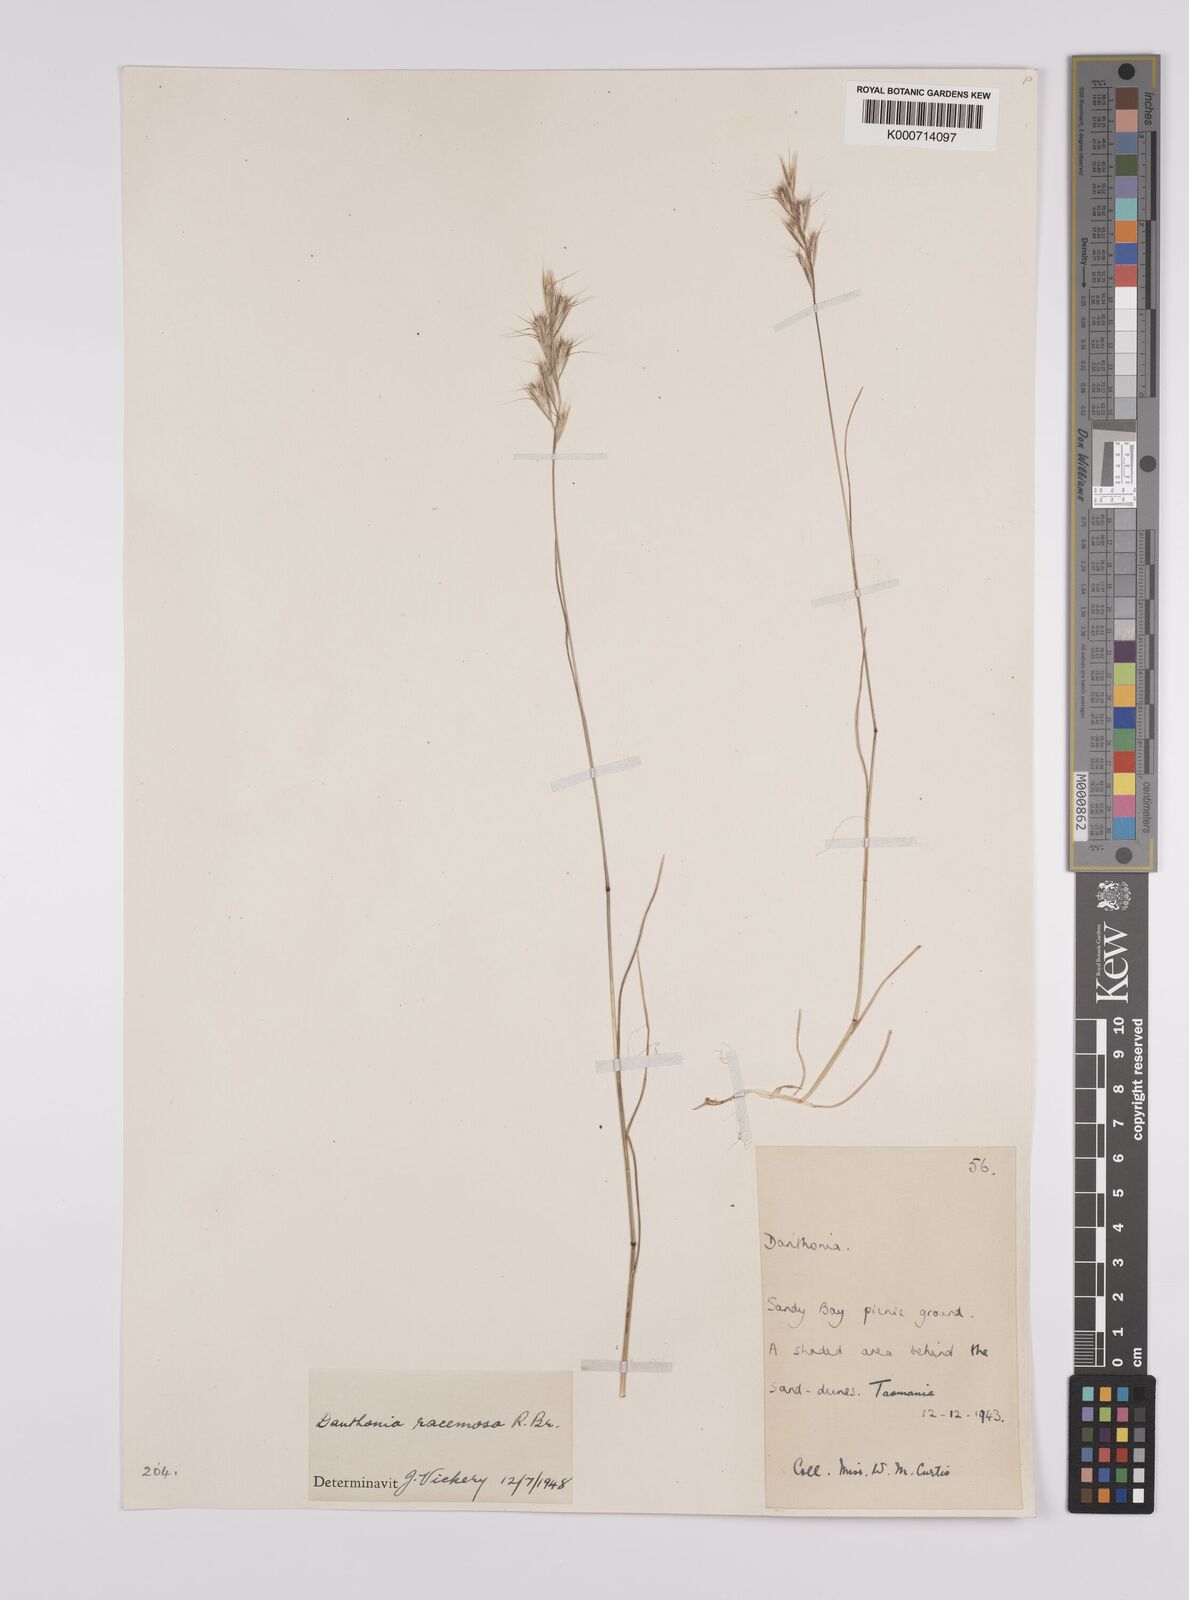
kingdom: Plantae
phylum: Tracheophyta
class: Liliopsida
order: Poales
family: Poaceae
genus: Rytidosperma
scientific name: Rytidosperma racemosum
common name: Wallaby-grass
